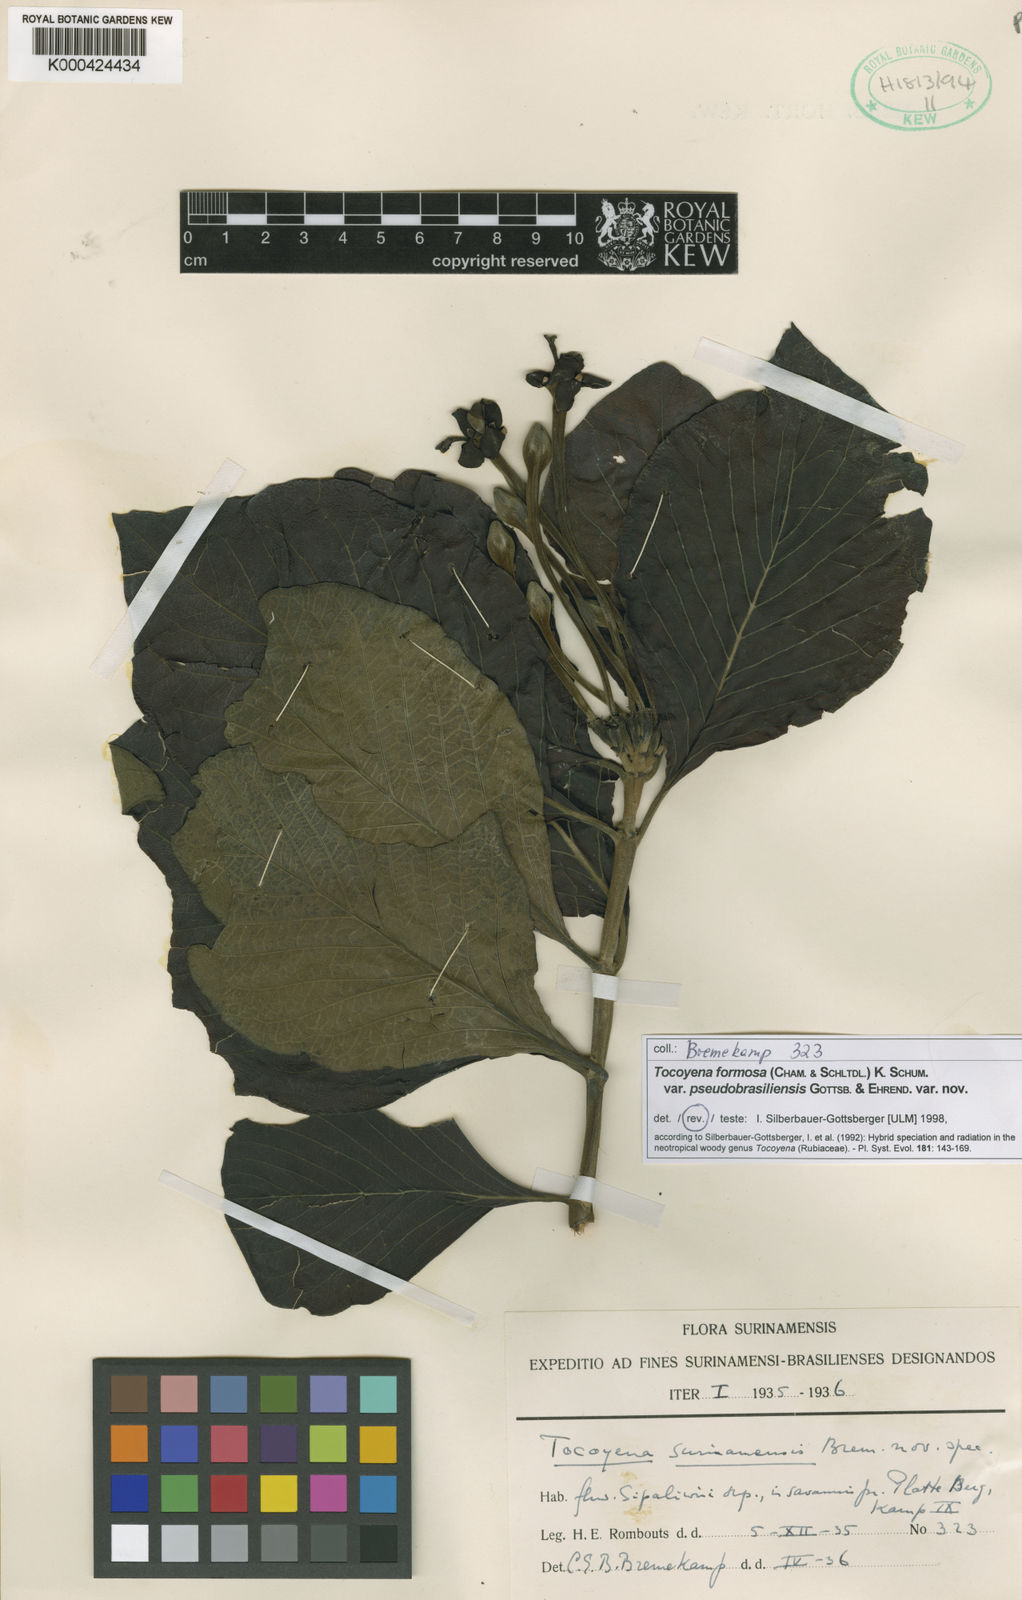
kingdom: Plantae
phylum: Tracheophyta
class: Magnoliopsida
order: Gentianales
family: Rubiaceae
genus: Tocoyena
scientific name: Tocoyena formosa
